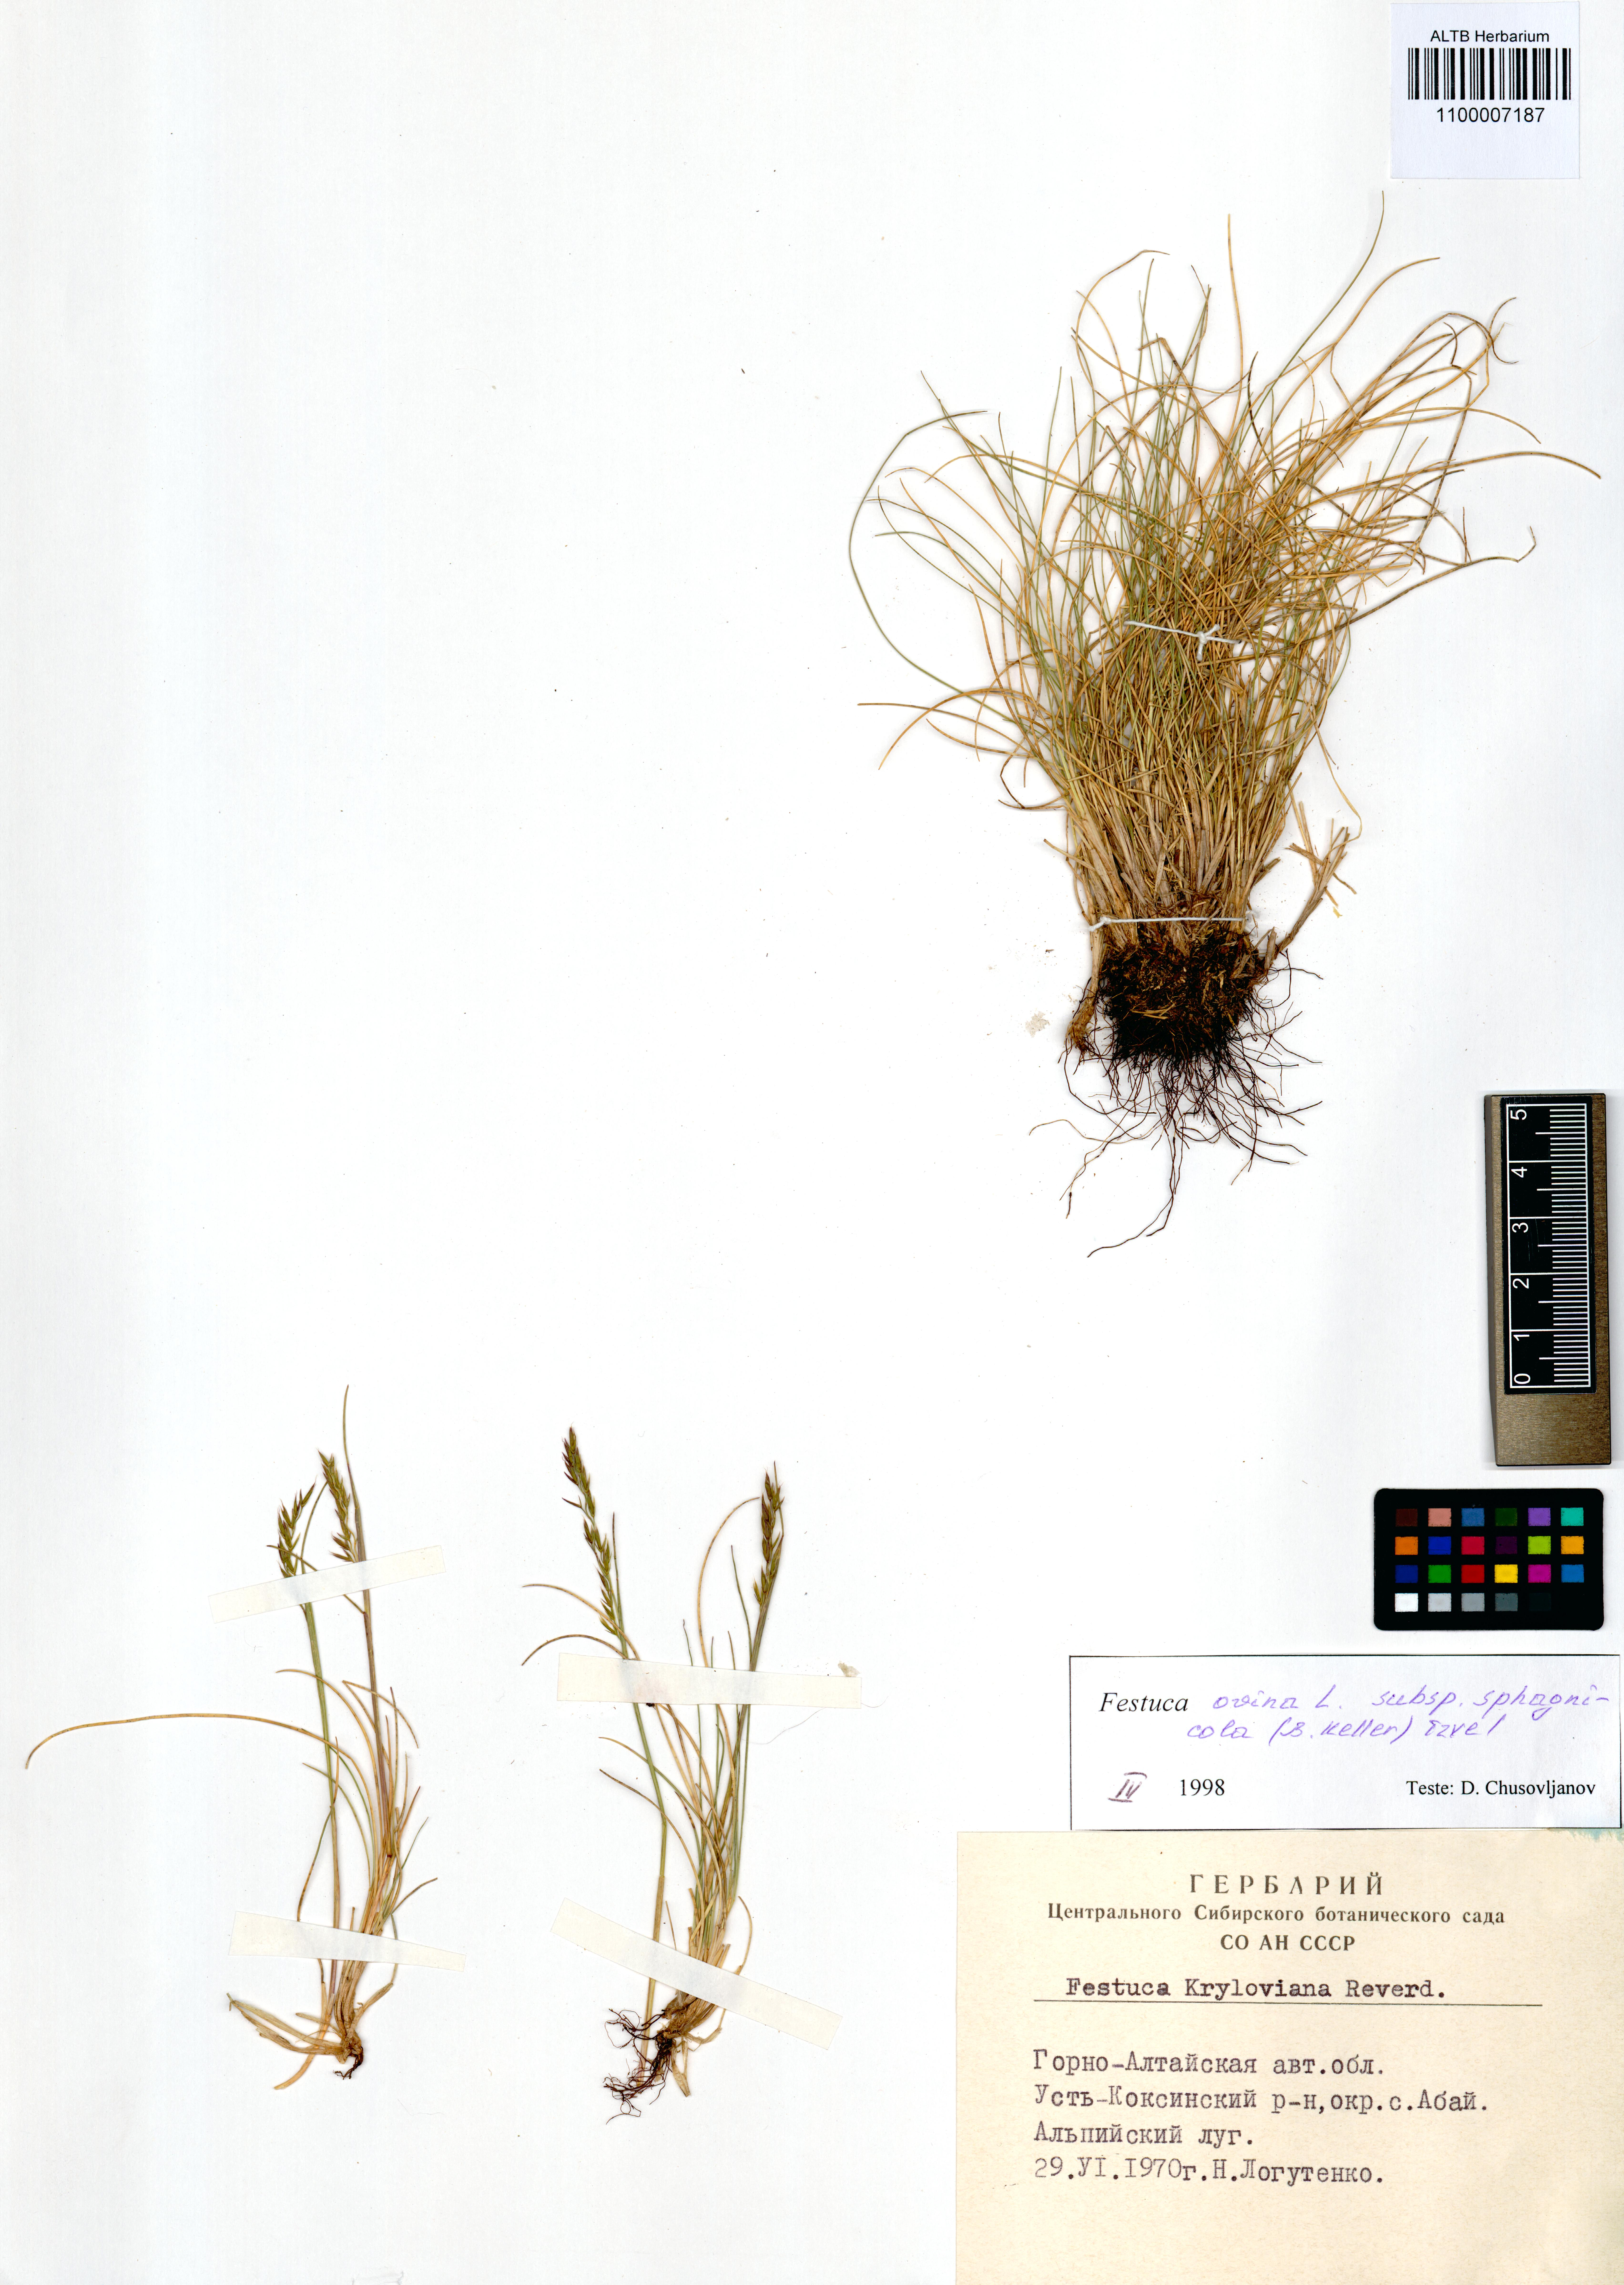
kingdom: Plantae
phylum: Tracheophyta
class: Liliopsida
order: Poales
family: Poaceae
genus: Festuca
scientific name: Festuca
